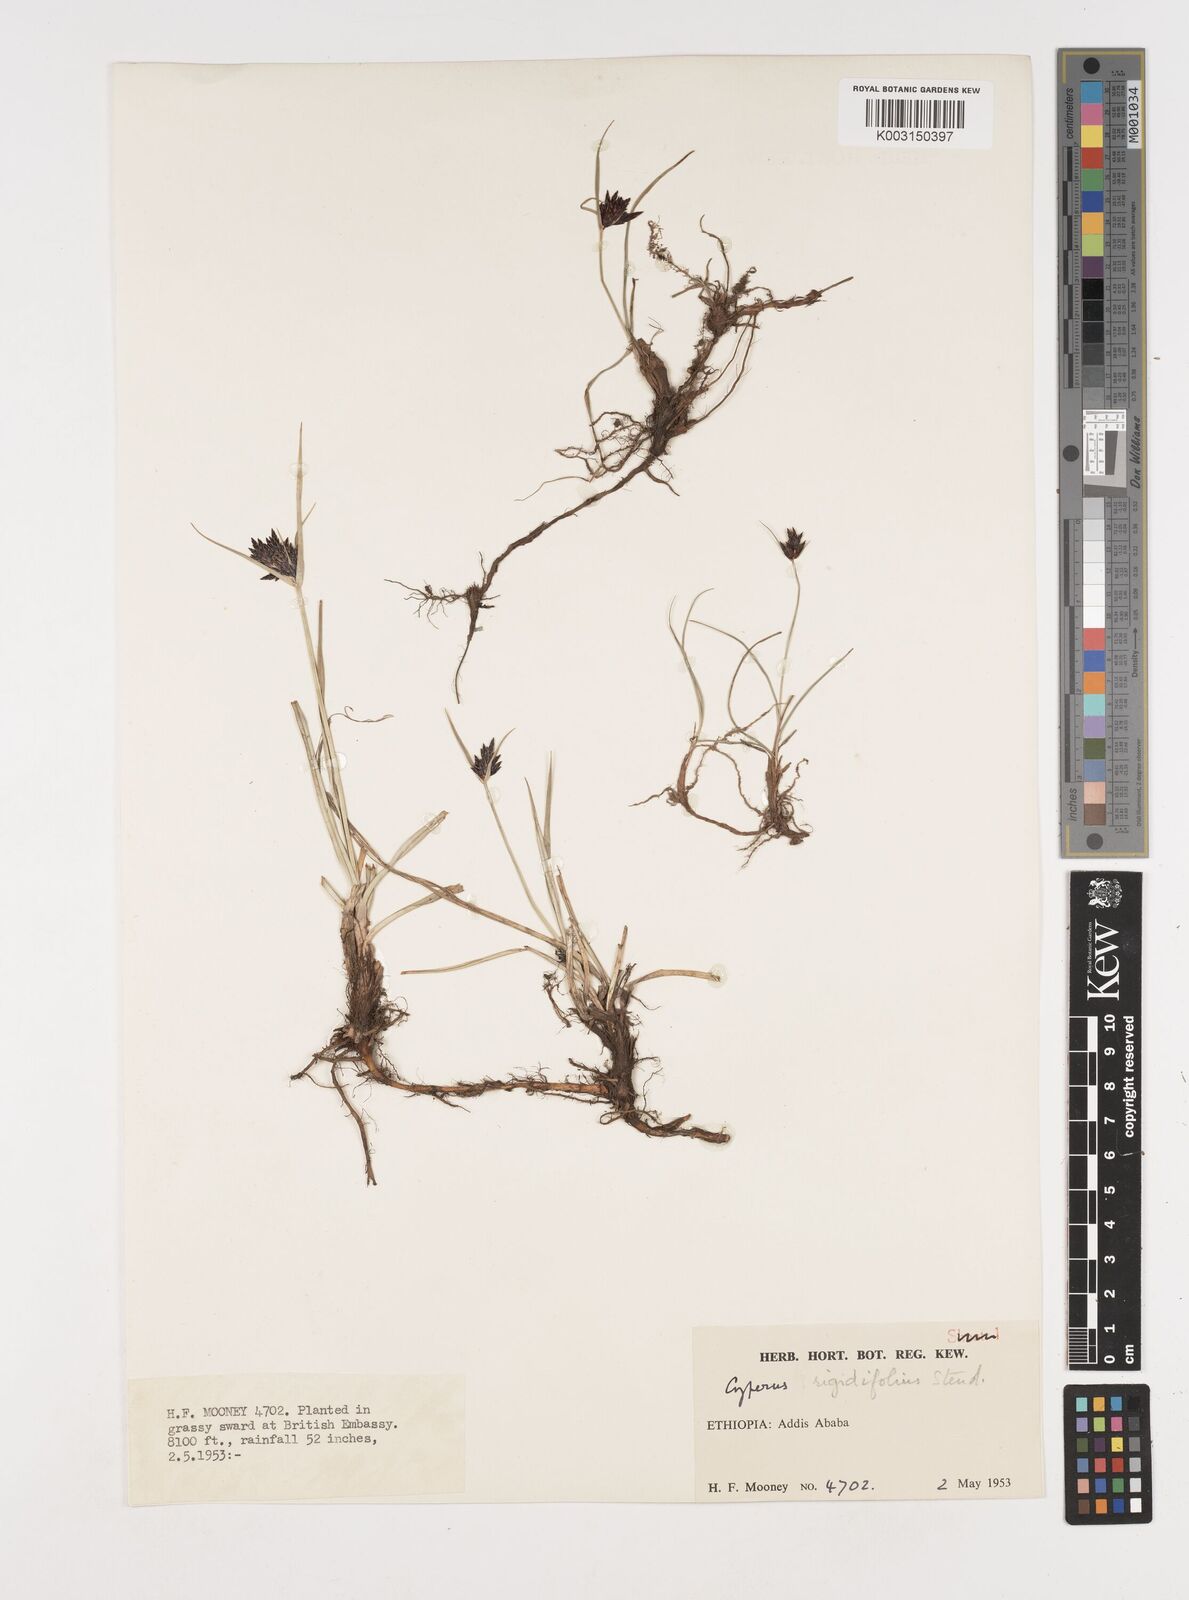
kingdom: Plantae
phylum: Tracheophyta
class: Liliopsida
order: Poales
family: Cyperaceae
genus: Cyperus
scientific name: Cyperus rigidifolius
